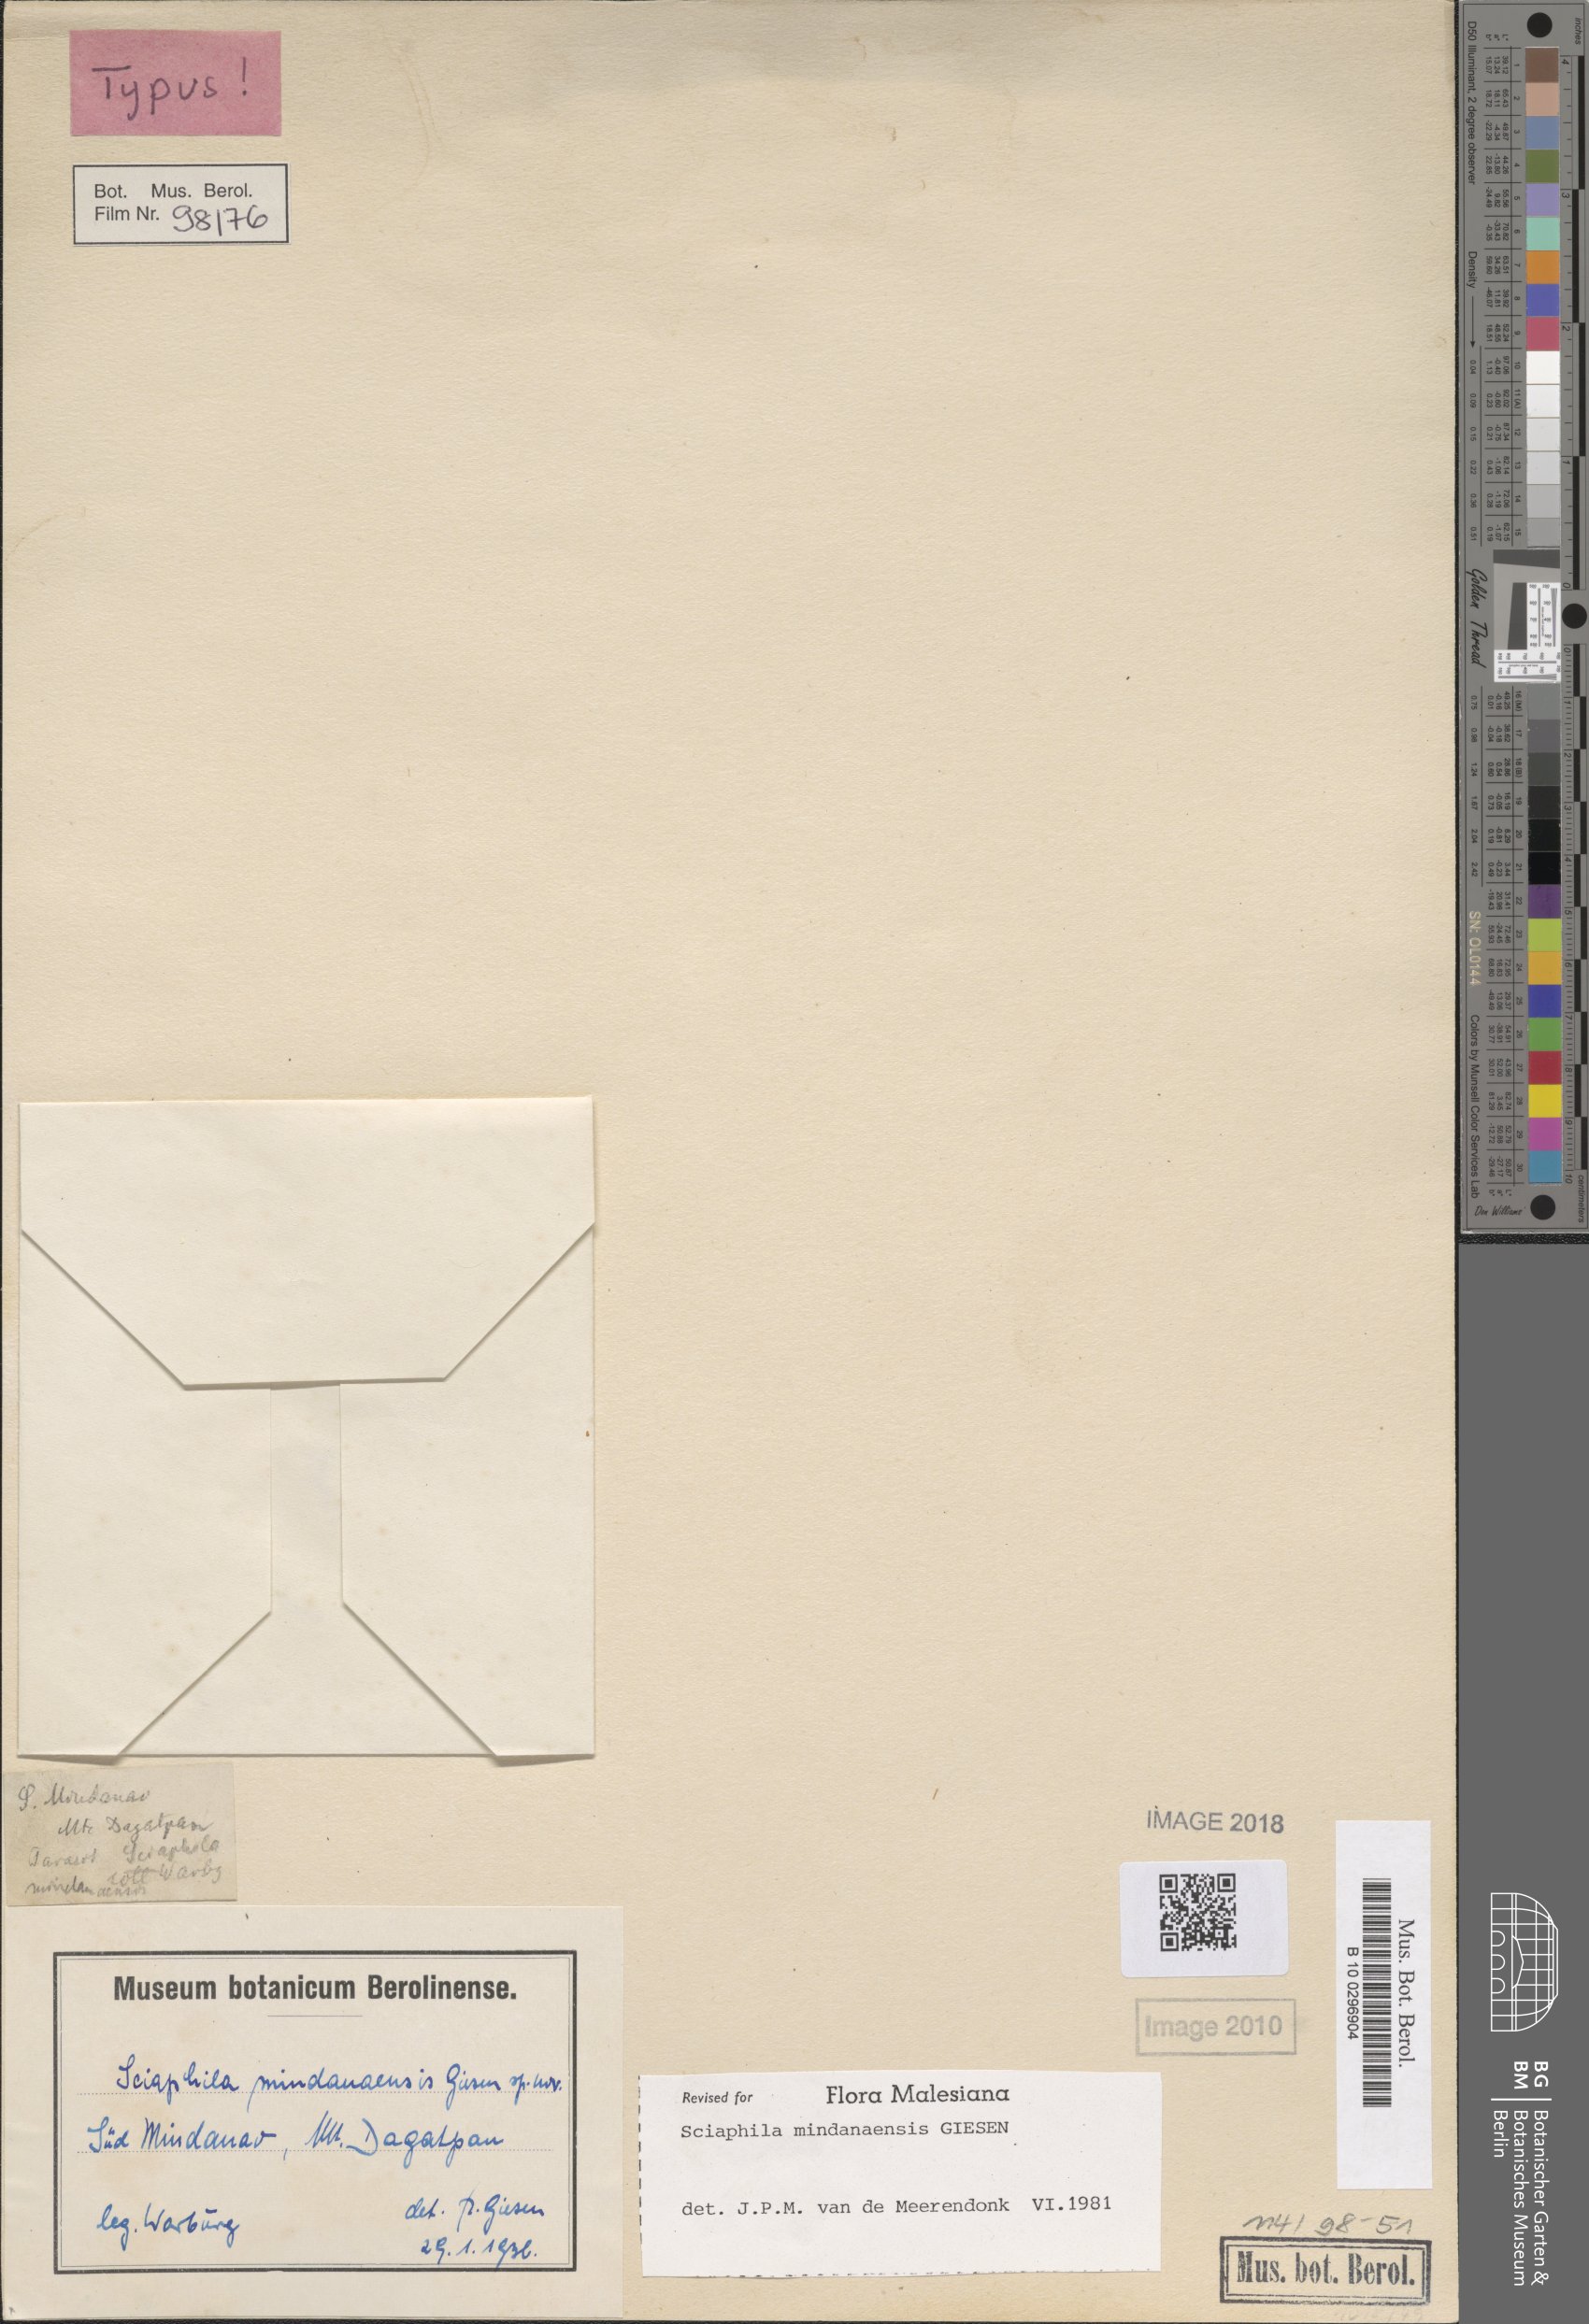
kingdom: Plantae
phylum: Tracheophyta
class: Liliopsida
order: Pandanales
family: Triuridaceae
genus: Sciaphila
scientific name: Sciaphila multiflora
